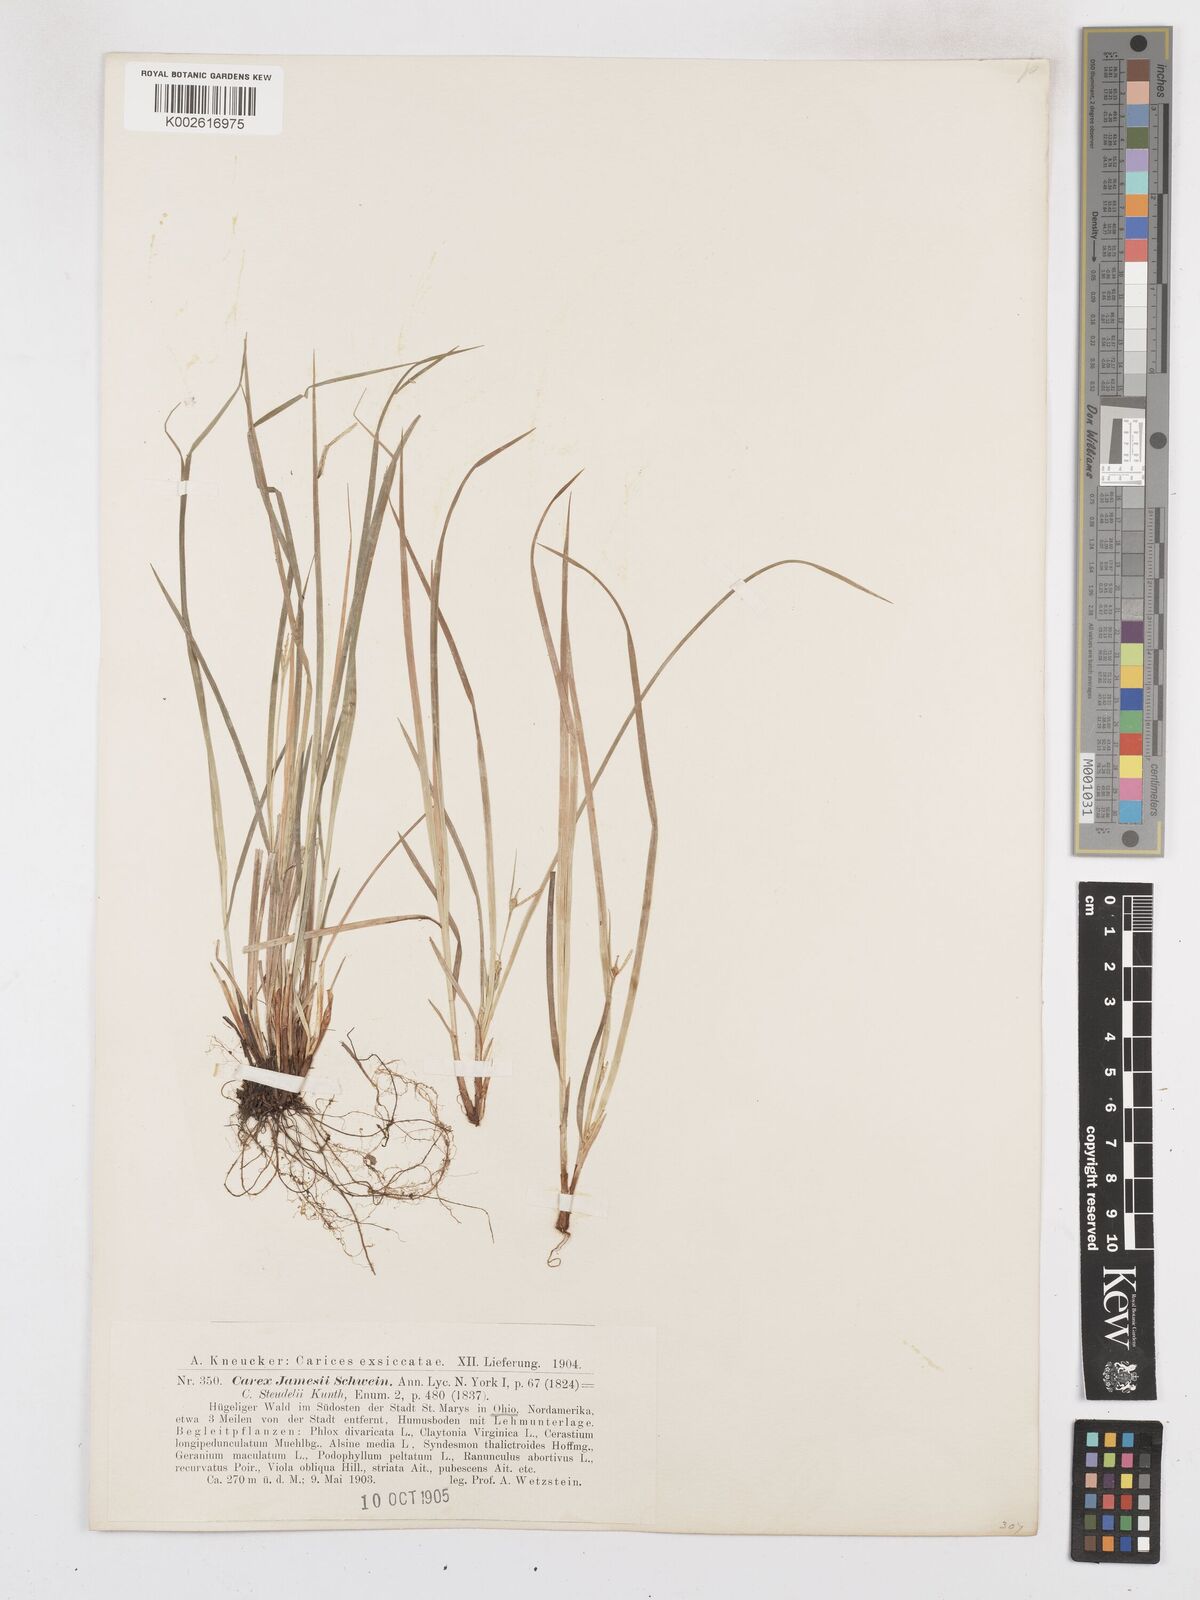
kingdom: Plantae
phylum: Tracheophyta
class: Liliopsida
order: Poales
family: Cyperaceae
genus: Carex
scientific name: Carex jamesii
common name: Grass sedge
